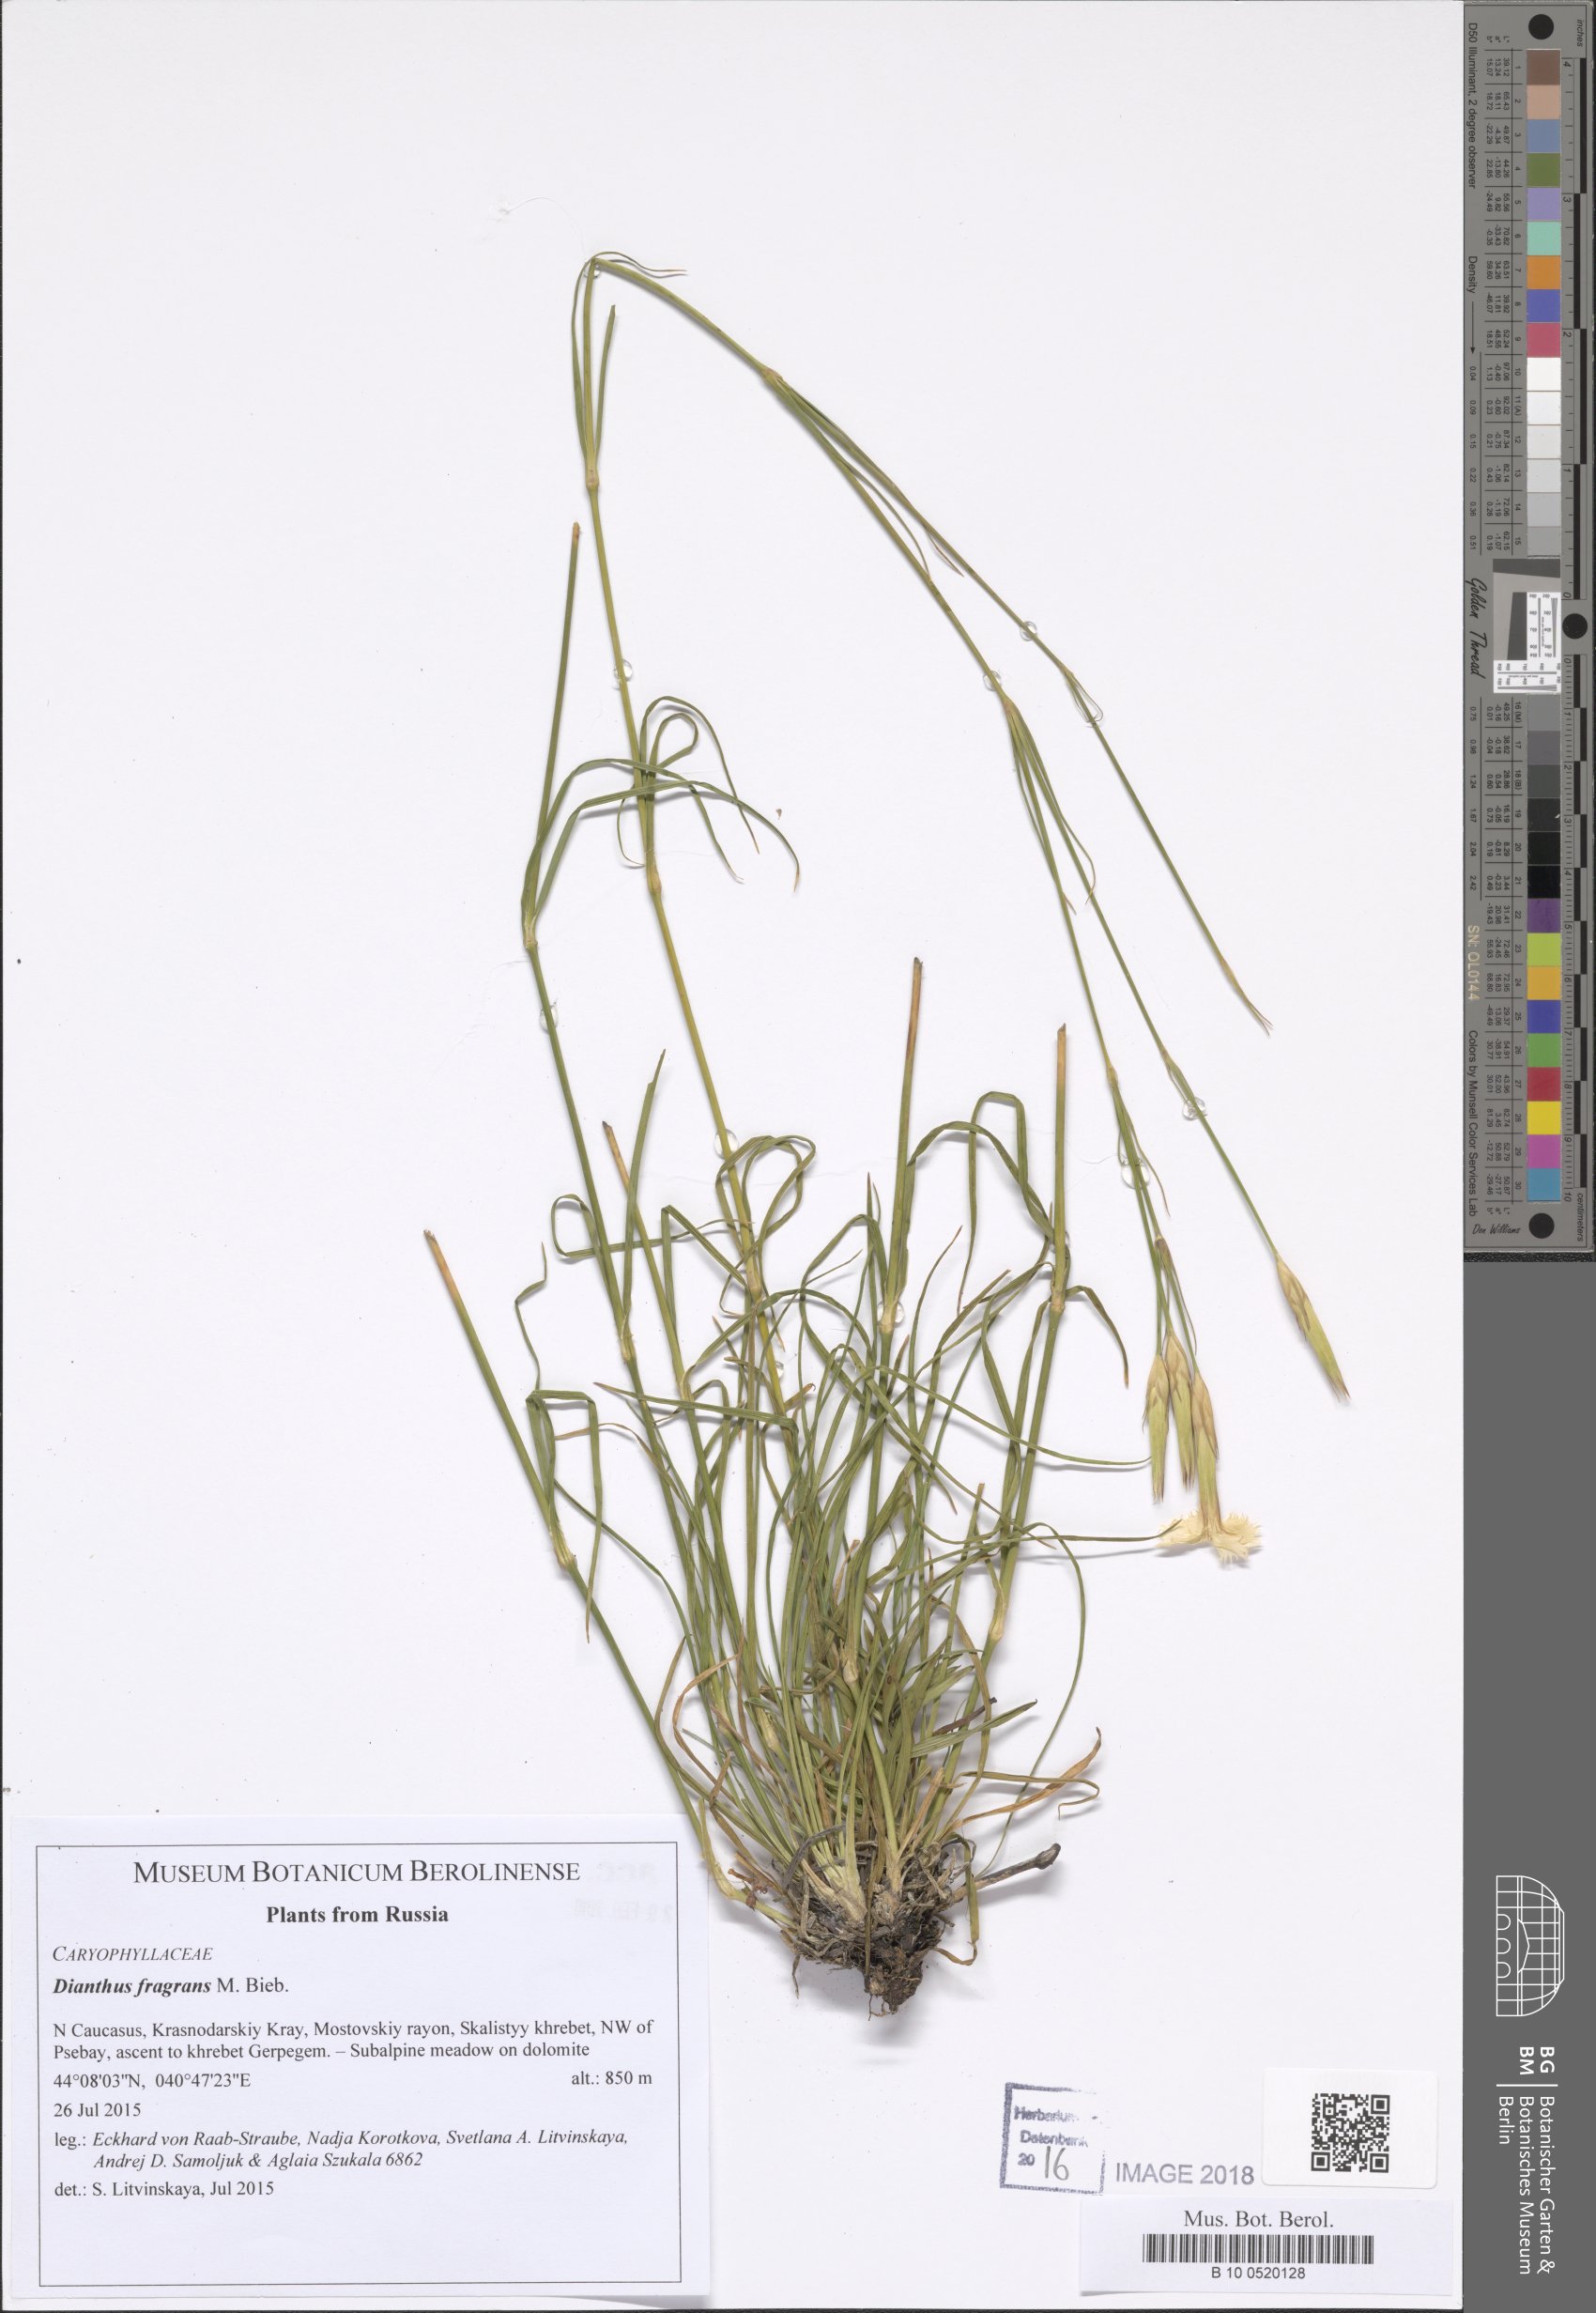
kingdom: Plantae
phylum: Tracheophyta
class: Magnoliopsida
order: Caryophyllales
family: Caryophyllaceae
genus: Dianthus
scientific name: Dianthus fragrans
